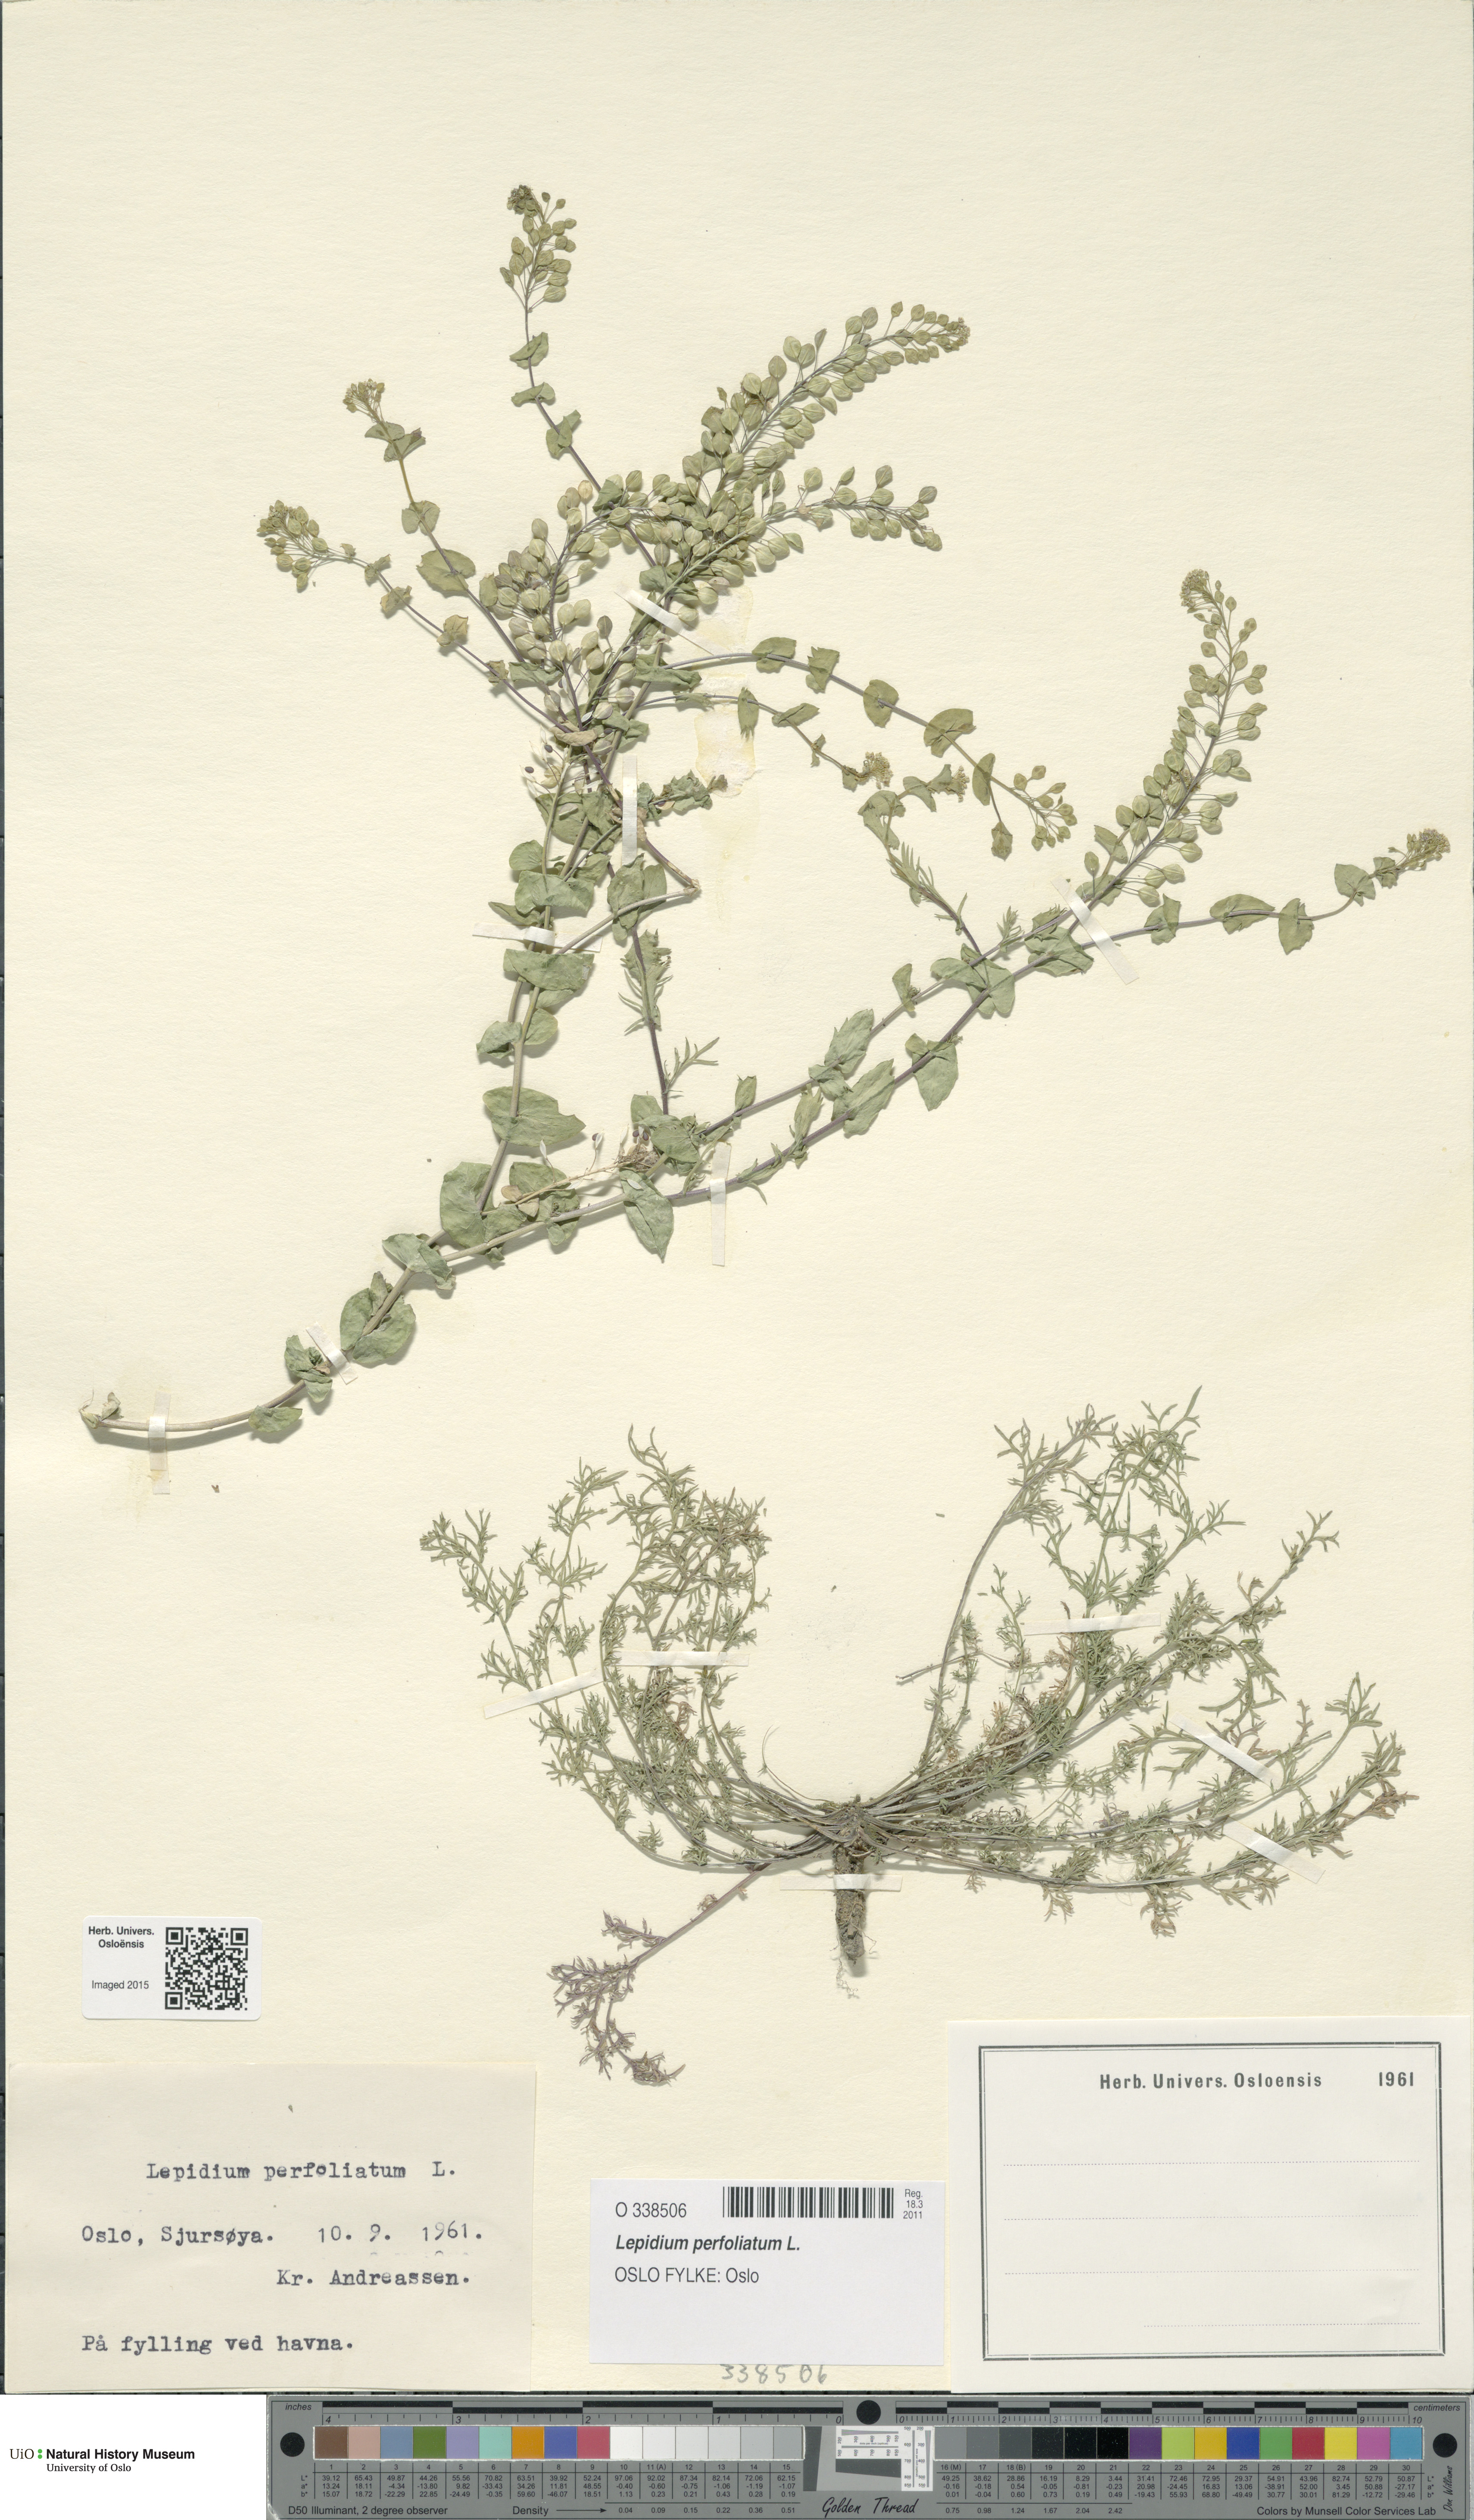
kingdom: Plantae
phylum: Tracheophyta
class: Magnoliopsida
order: Brassicales
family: Brassicaceae
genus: Lepidium
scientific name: Lepidium perfoliatum
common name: Perfoliate pepperwort
